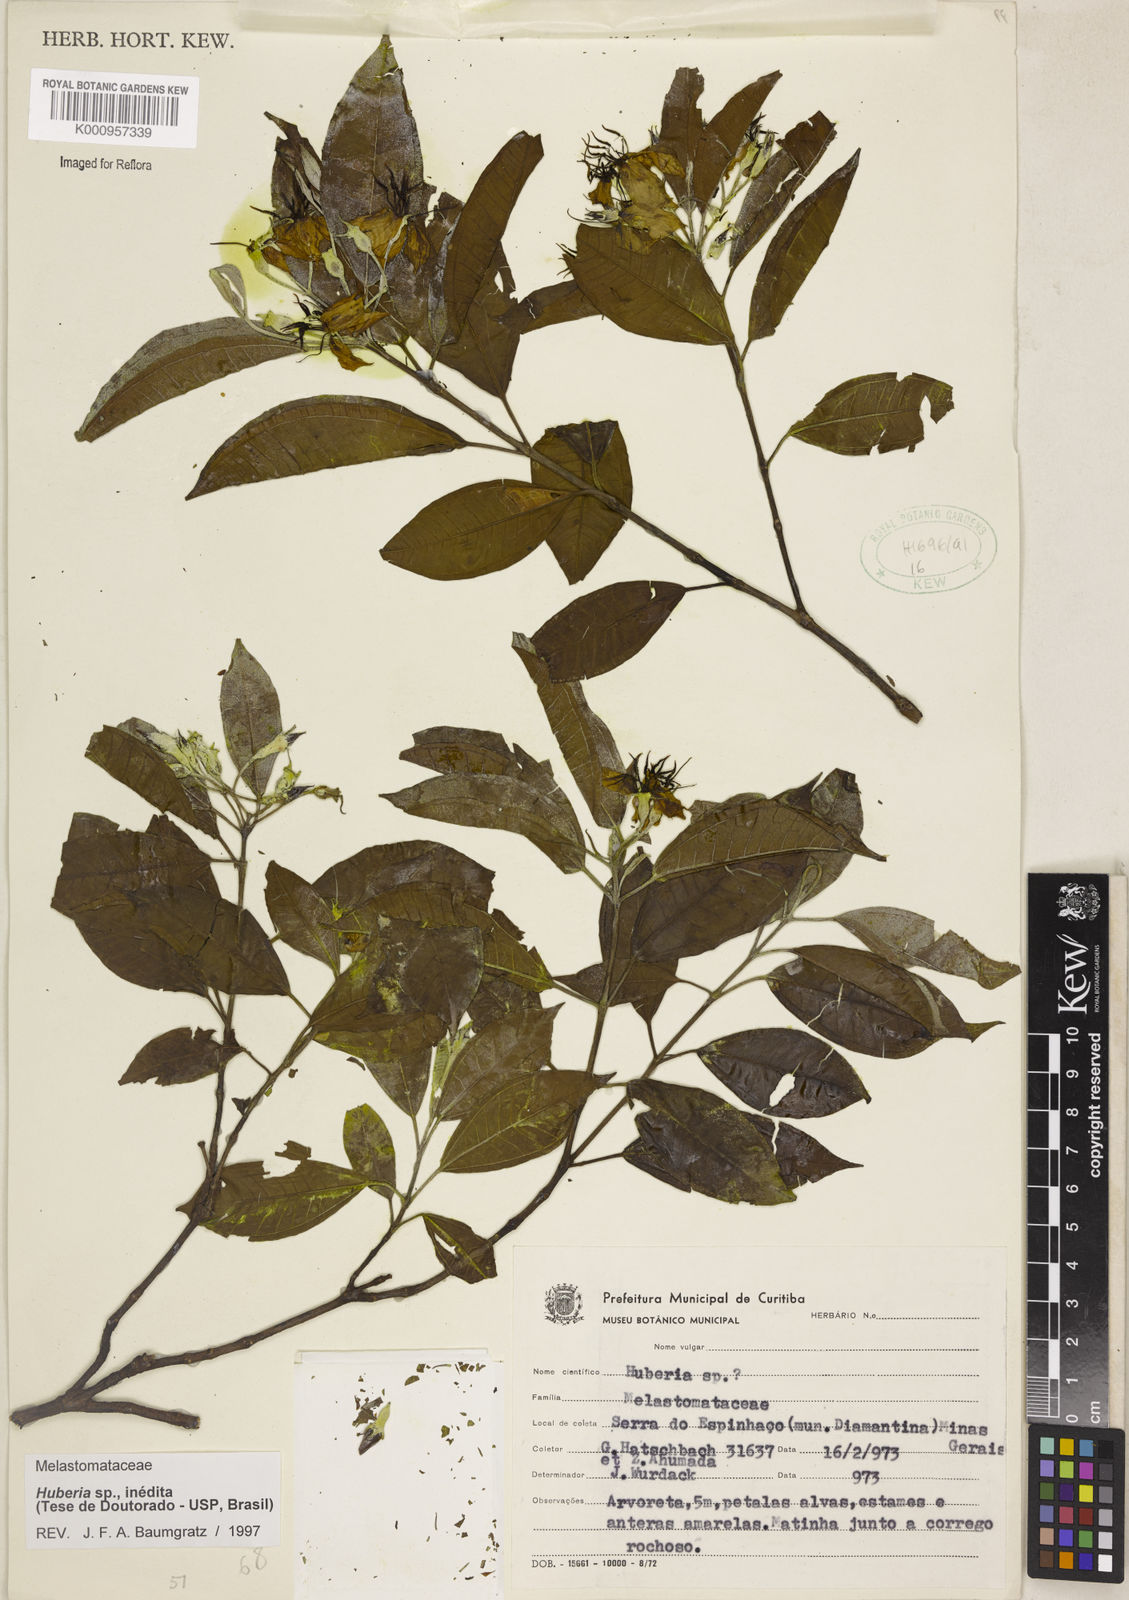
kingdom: Plantae
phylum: Tracheophyta
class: Magnoliopsida
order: Myrtales
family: Melastomataceae
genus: Huberia
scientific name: Huberia
